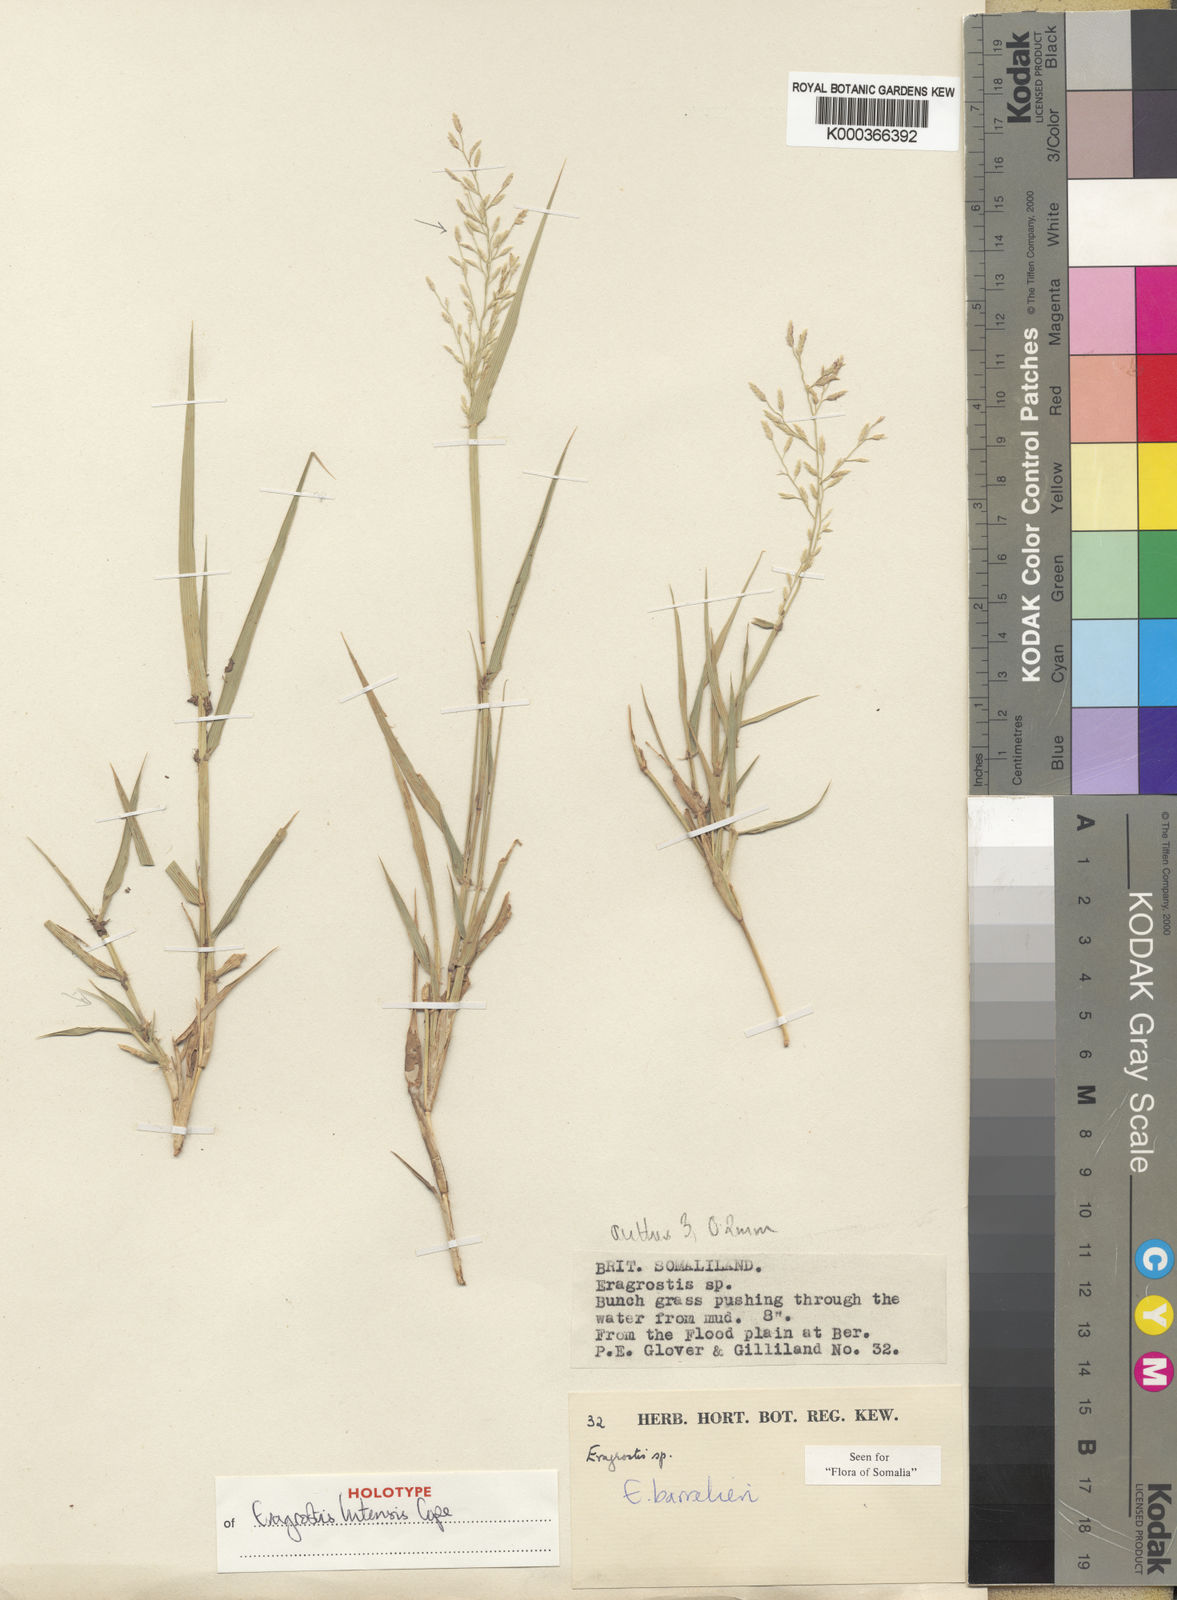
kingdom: Plantae
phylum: Tracheophyta
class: Liliopsida
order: Poales
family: Poaceae
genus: Eragrostis
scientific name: Eragrostis lutensis
